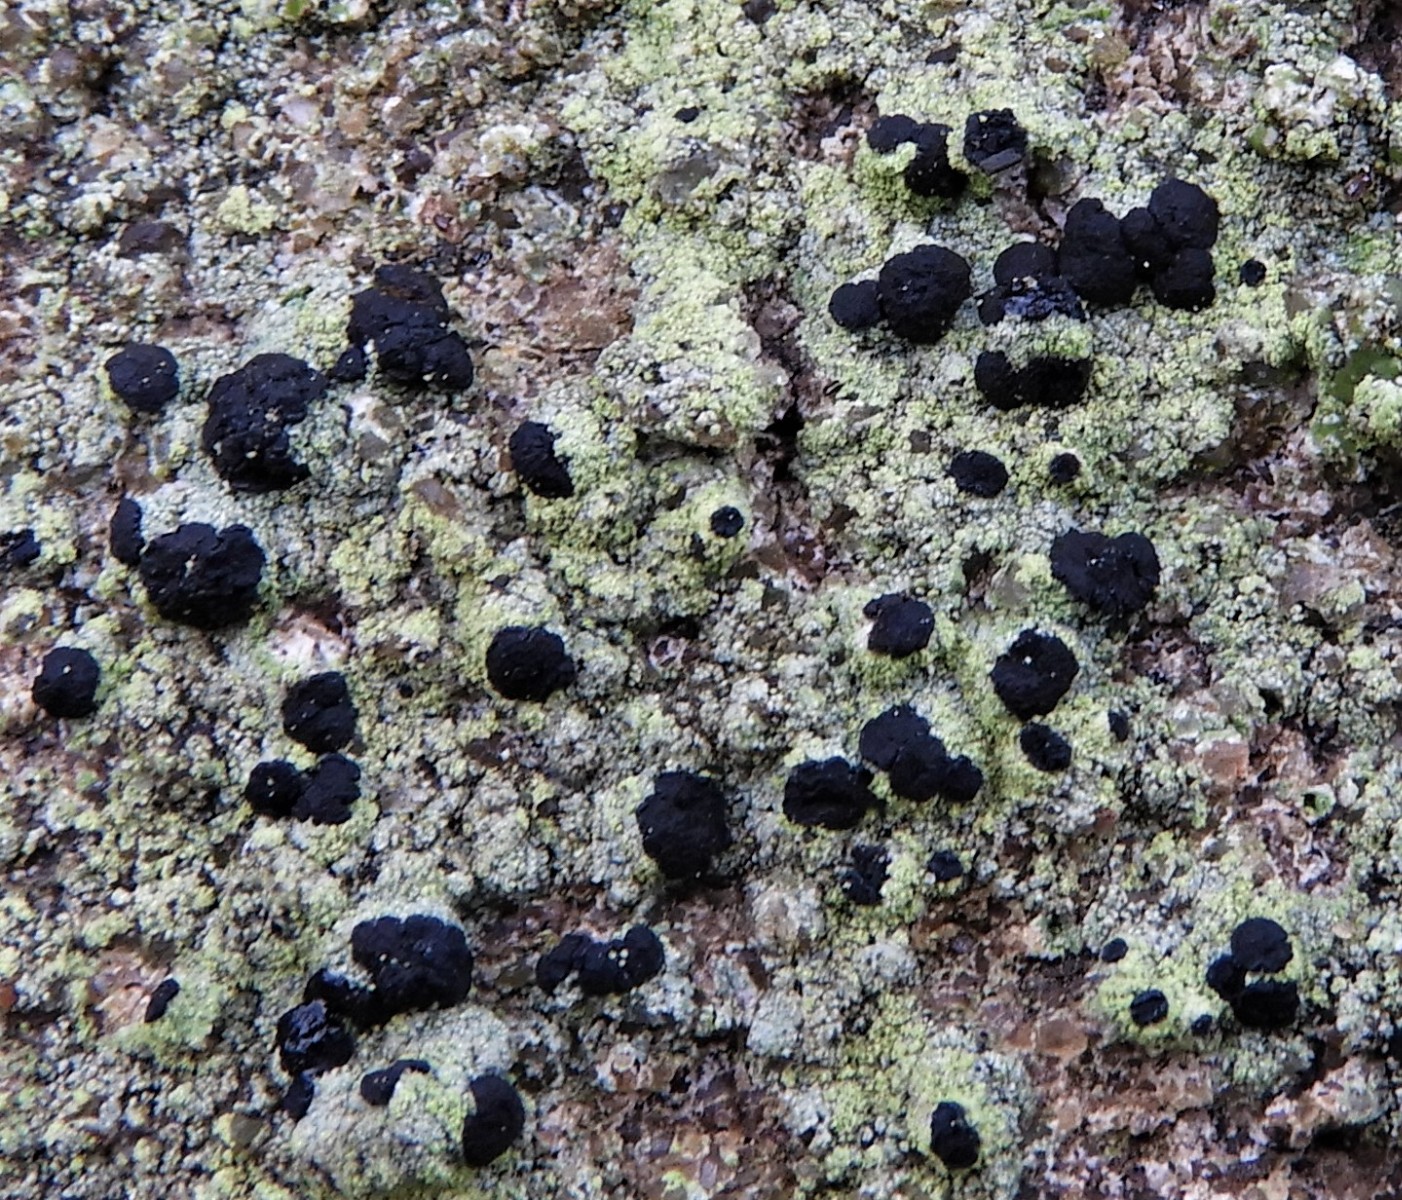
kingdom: Fungi
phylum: Ascomycota
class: Lecanoromycetes
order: Lecanorales
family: Lecanoraceae
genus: Lecidella
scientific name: Lecidella scabra
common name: skurvet skivelav
